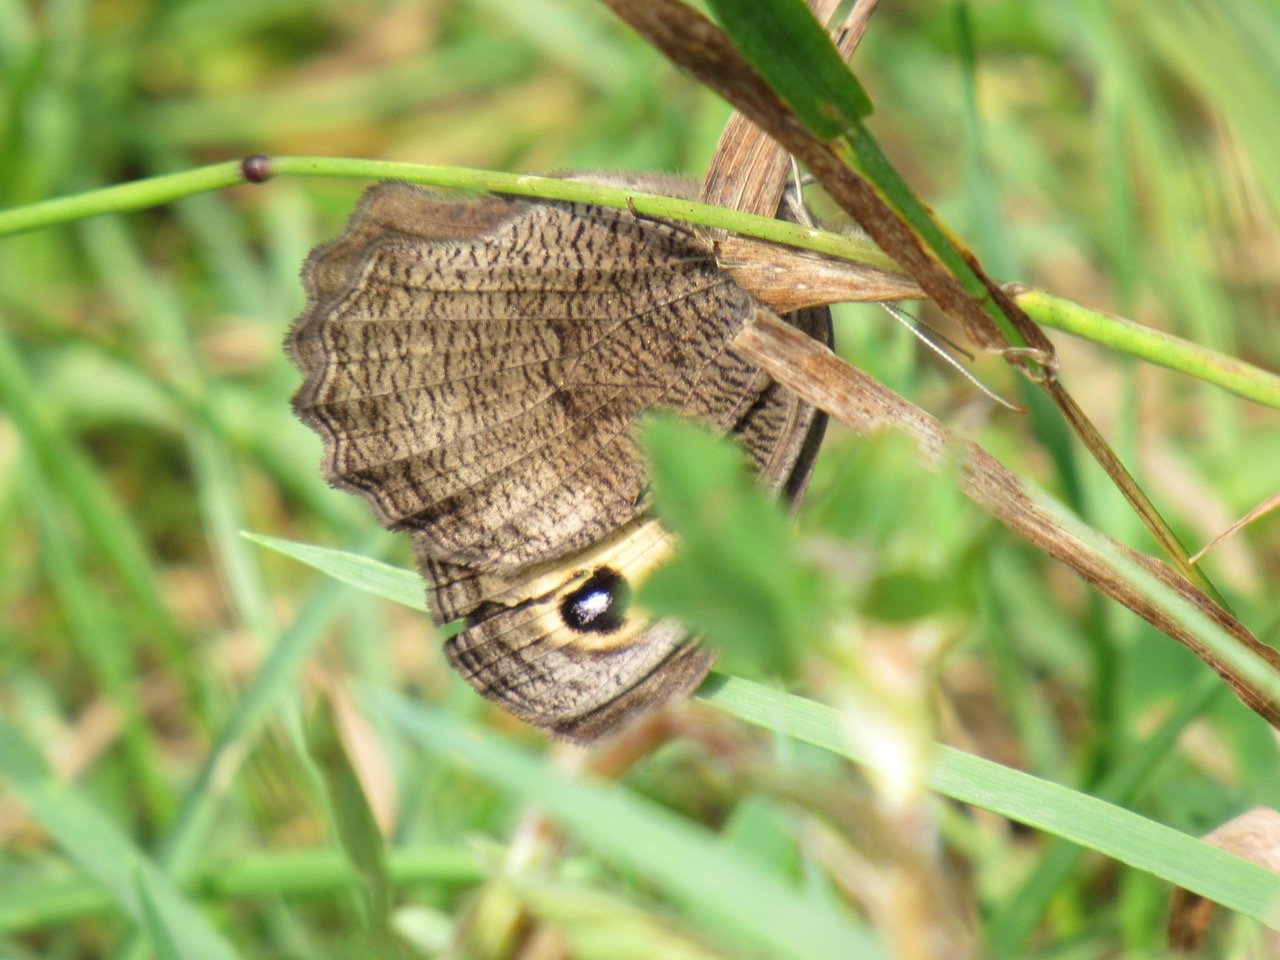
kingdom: Animalia
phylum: Arthropoda
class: Insecta
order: Lepidoptera
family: Nymphalidae
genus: Cercyonis
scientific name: Cercyonis pegala
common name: Common Wood-Nymph
